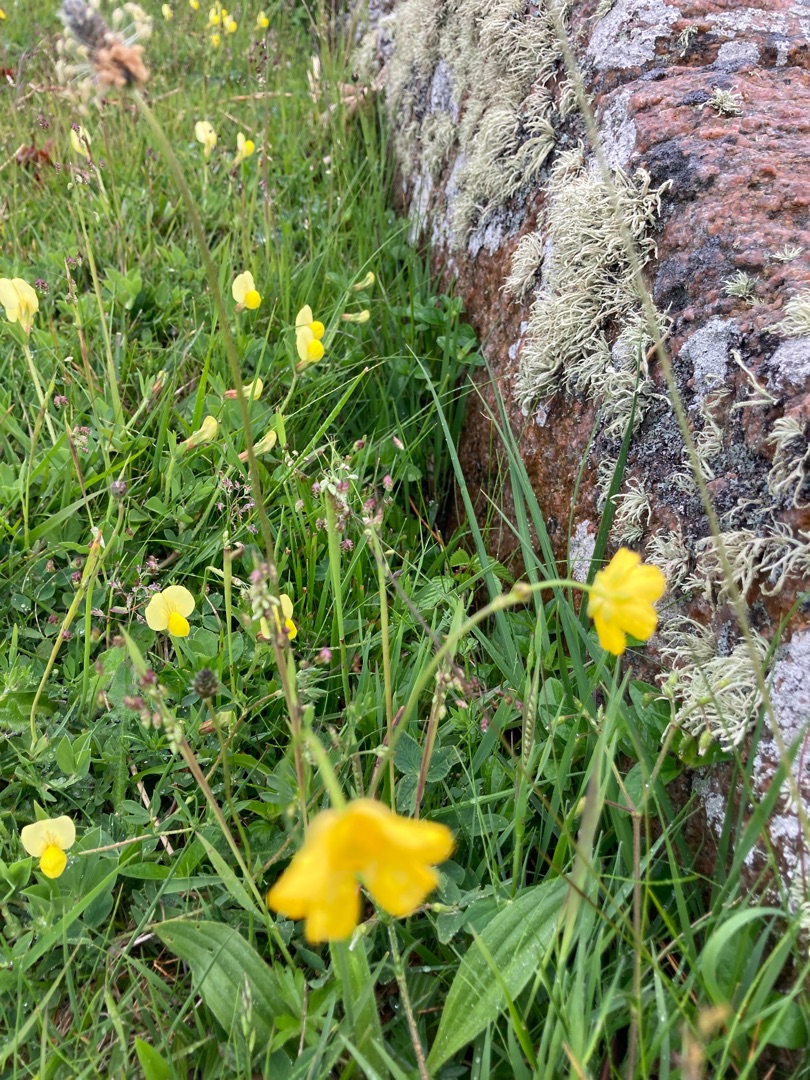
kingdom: Plantae
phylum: Tracheophyta
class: Liliopsida
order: Poales
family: Poaceae
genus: Briza
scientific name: Briza media
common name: Hjertegræs
